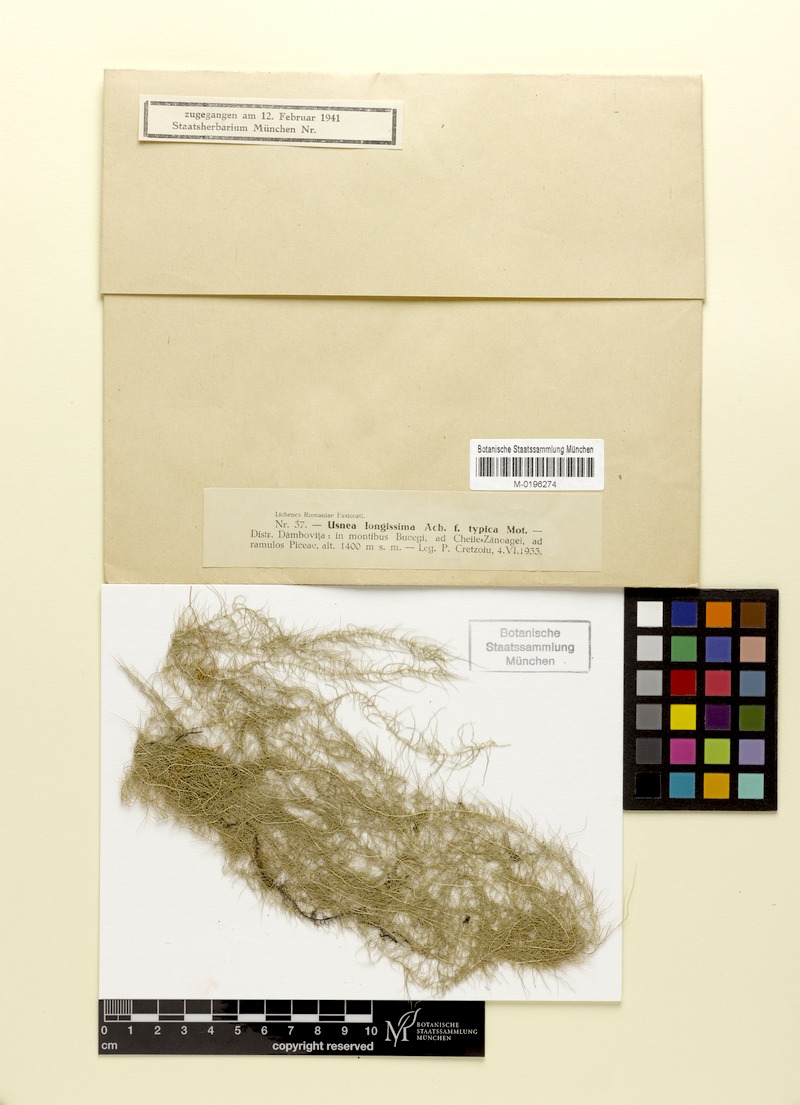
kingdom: Fungi
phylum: Ascomycota
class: Lecanoromycetes
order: Lecanorales
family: Parmeliaceae
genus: Dolichousnea
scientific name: Dolichousnea longissima
